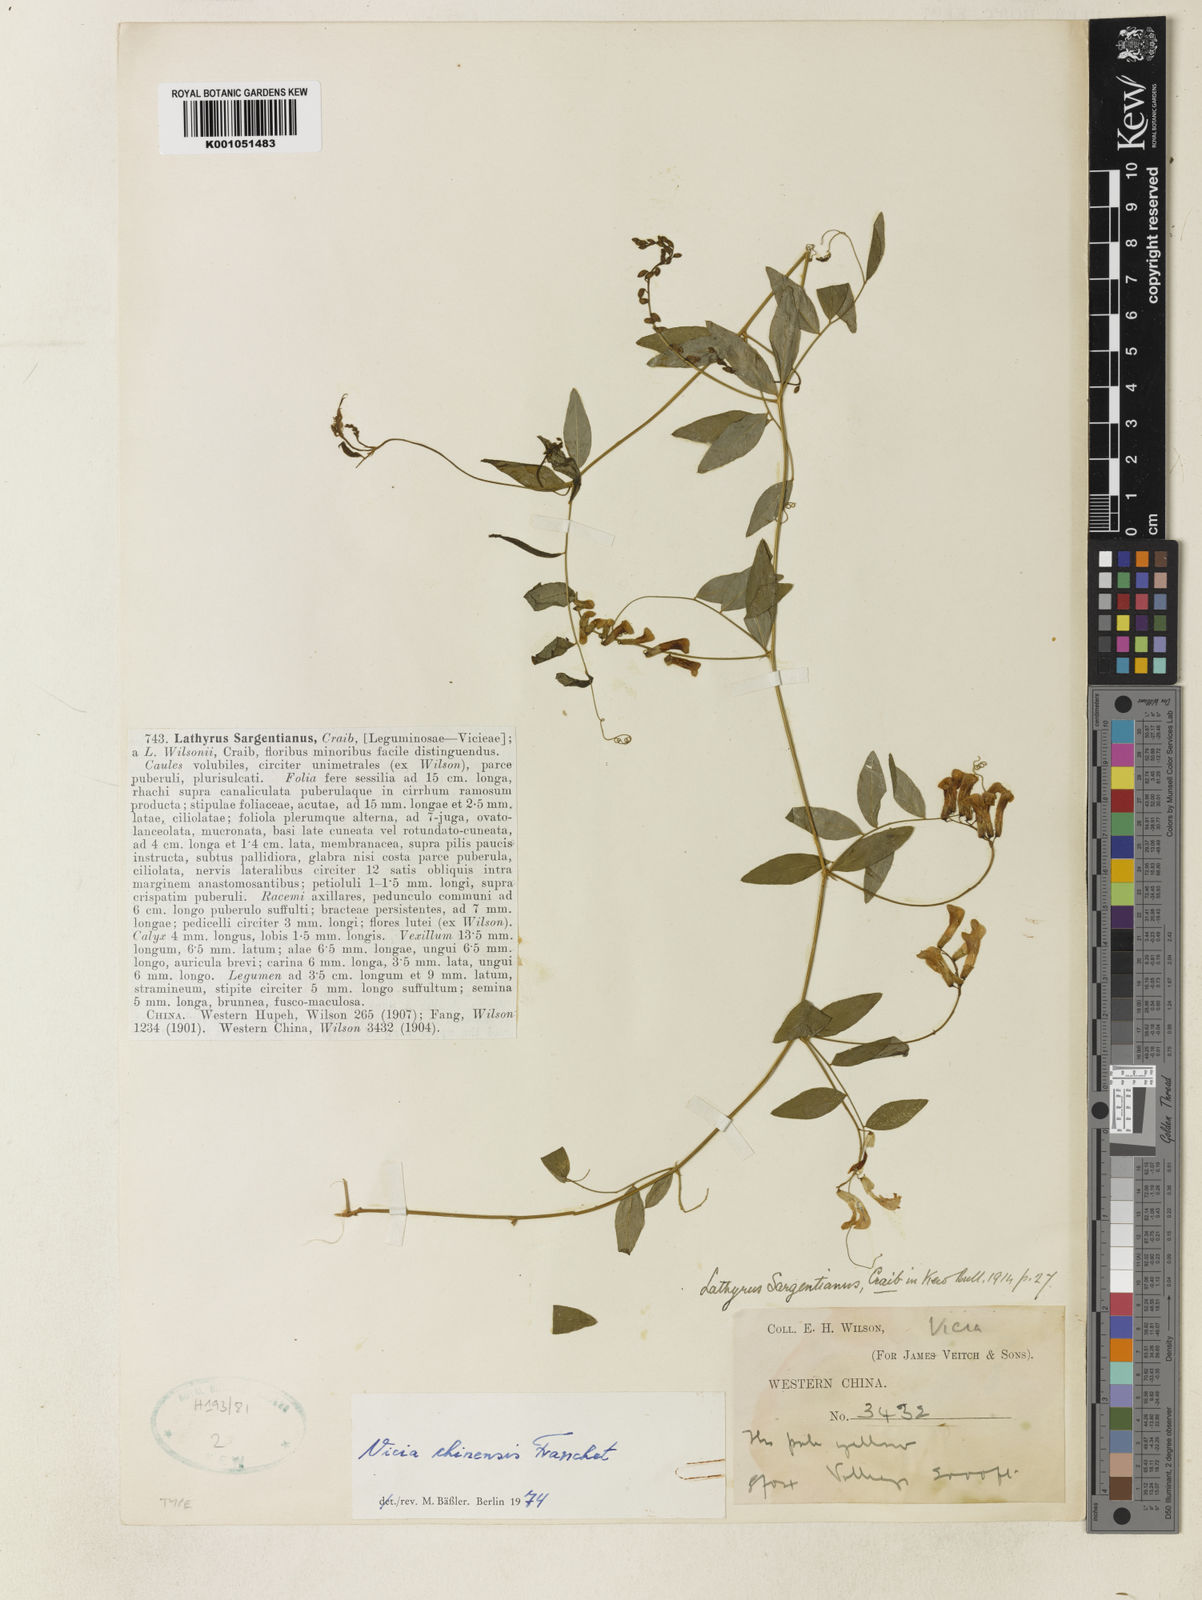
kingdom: Plantae
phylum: Tracheophyta
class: Magnoliopsida
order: Fabales
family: Fabaceae
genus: Vicia
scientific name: Vicia chinensis
